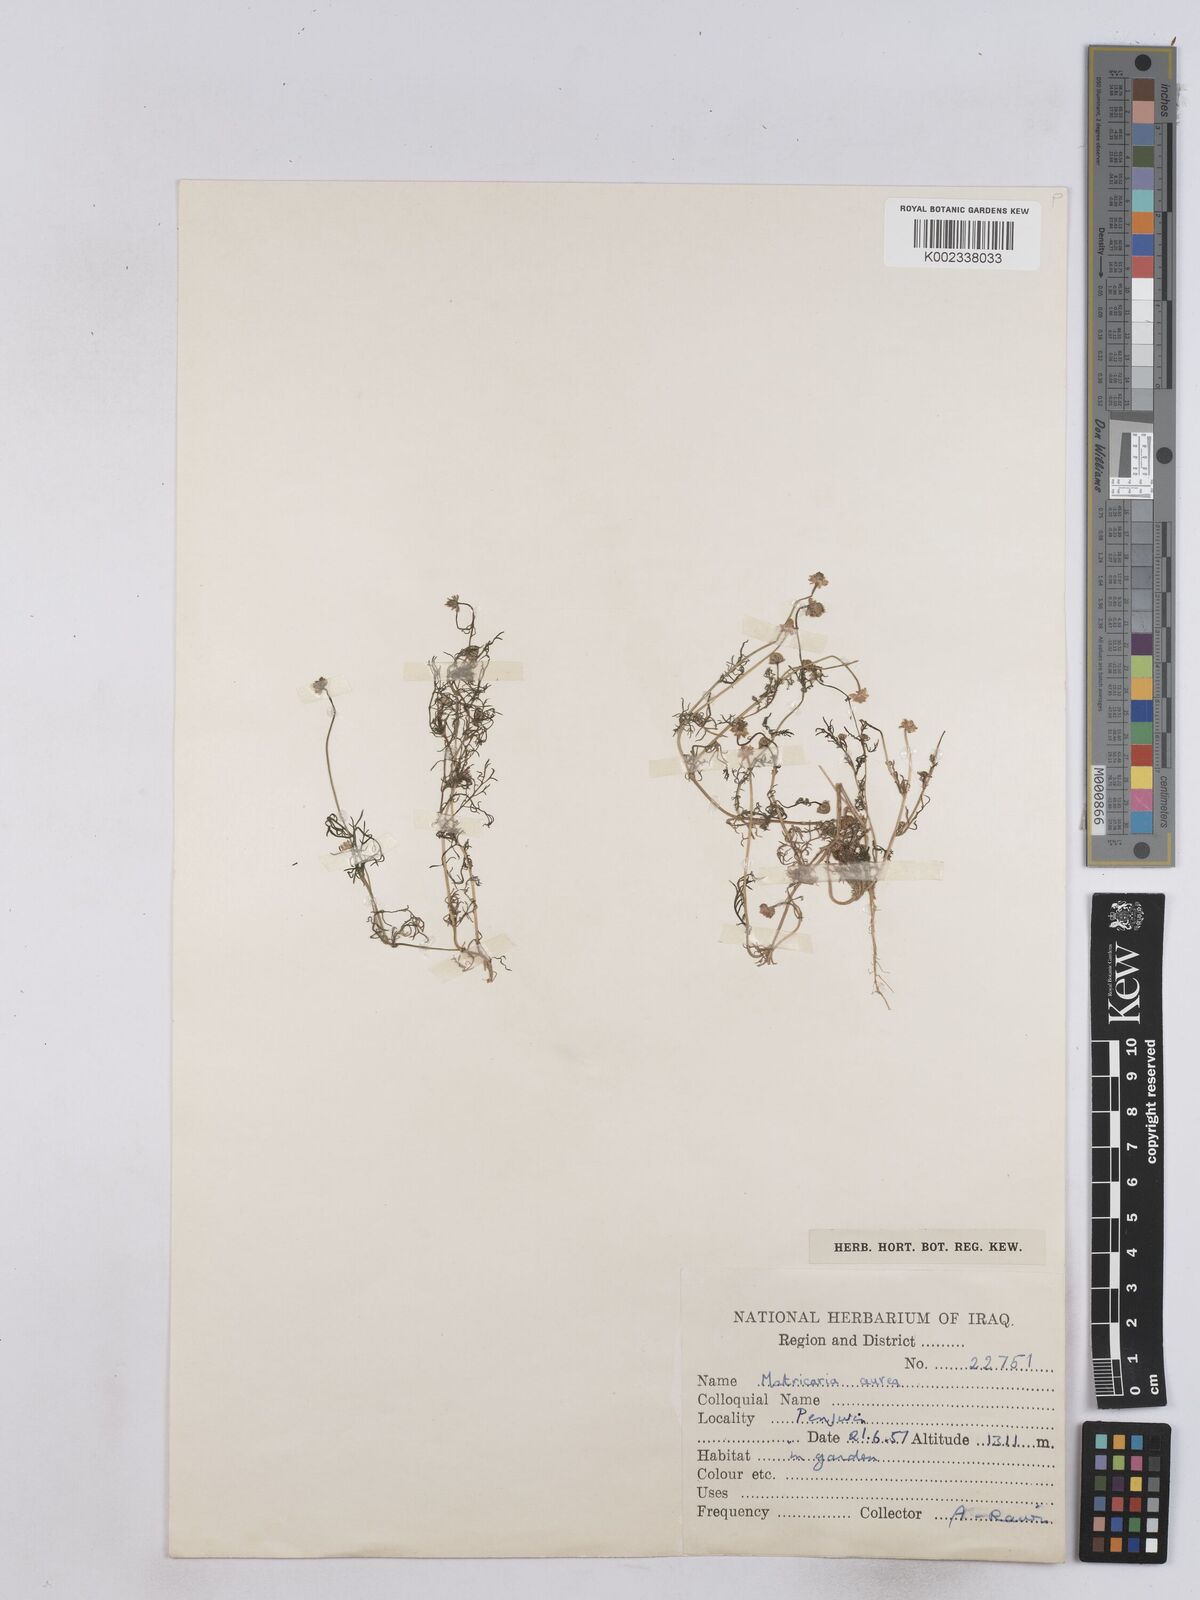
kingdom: Plantae
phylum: Tracheophyta
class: Magnoliopsida
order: Asterales
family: Asteraceae
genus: Matricaria
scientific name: Matricaria aurea
